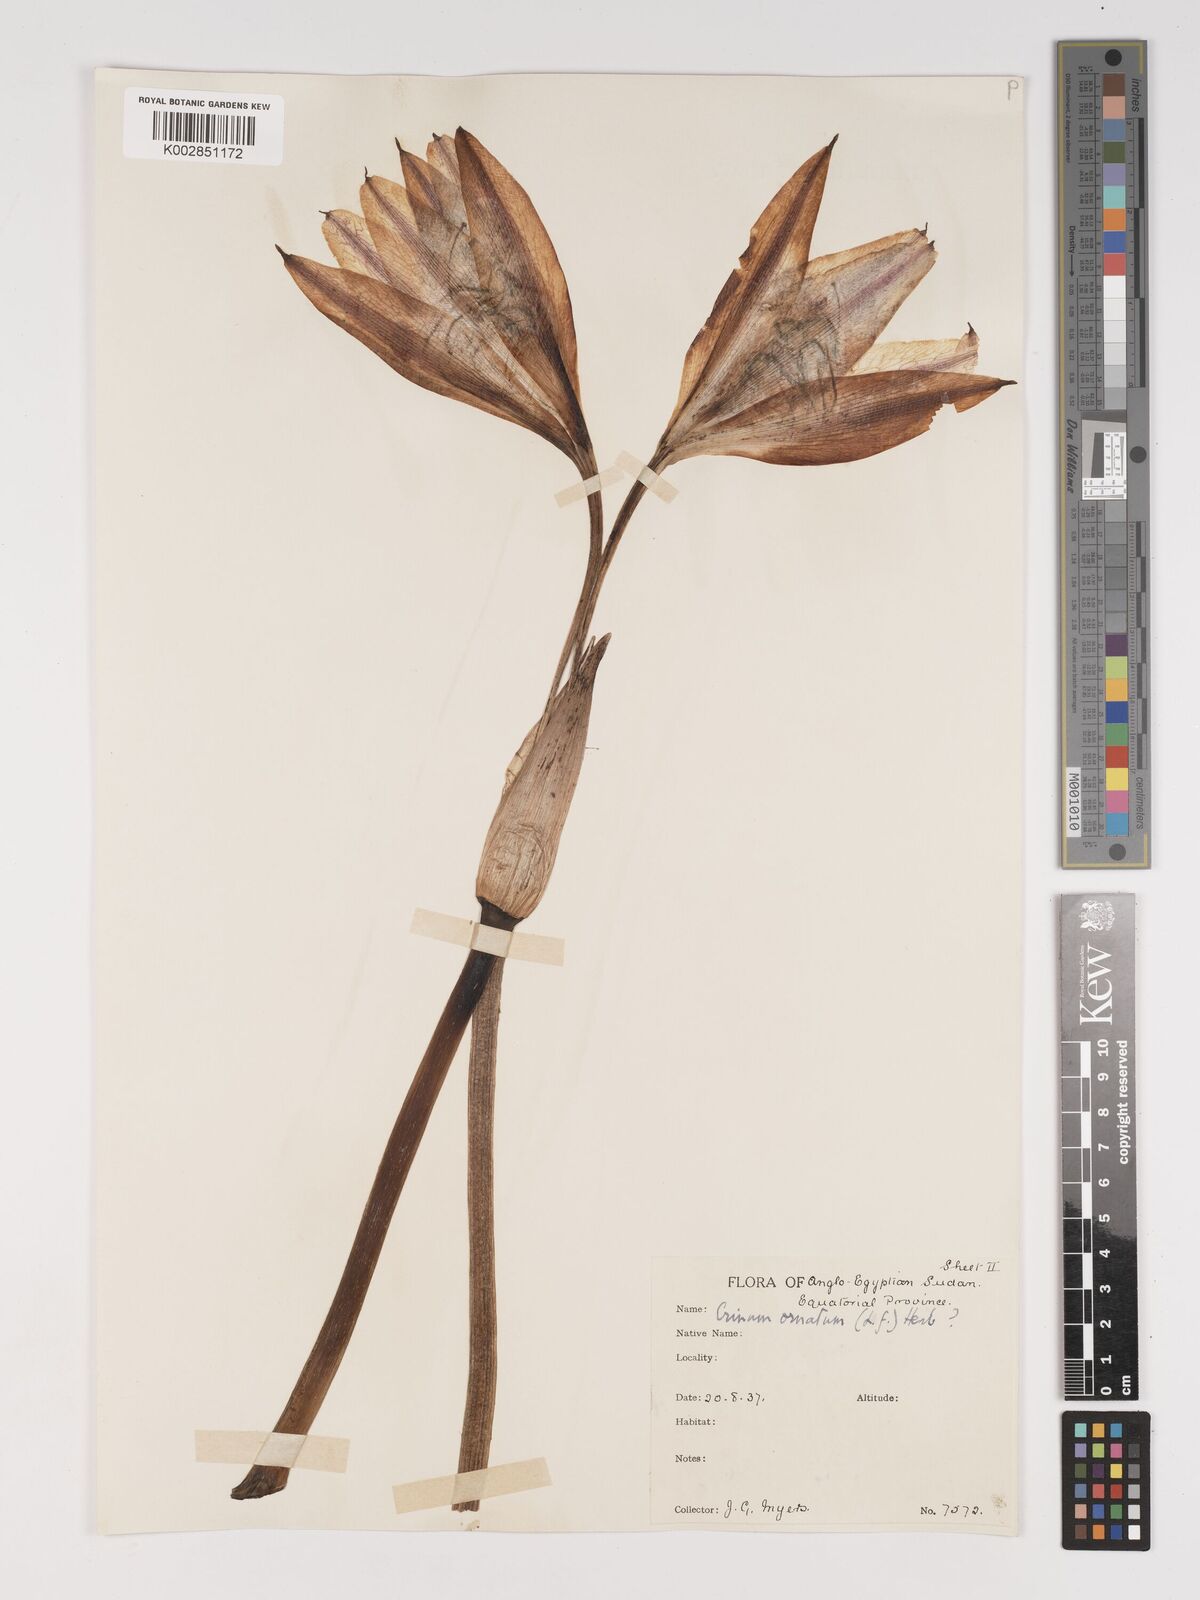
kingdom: Plantae
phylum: Tracheophyta
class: Liliopsida
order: Asparagales
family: Amaryllidaceae
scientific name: Amaryllidaceae
